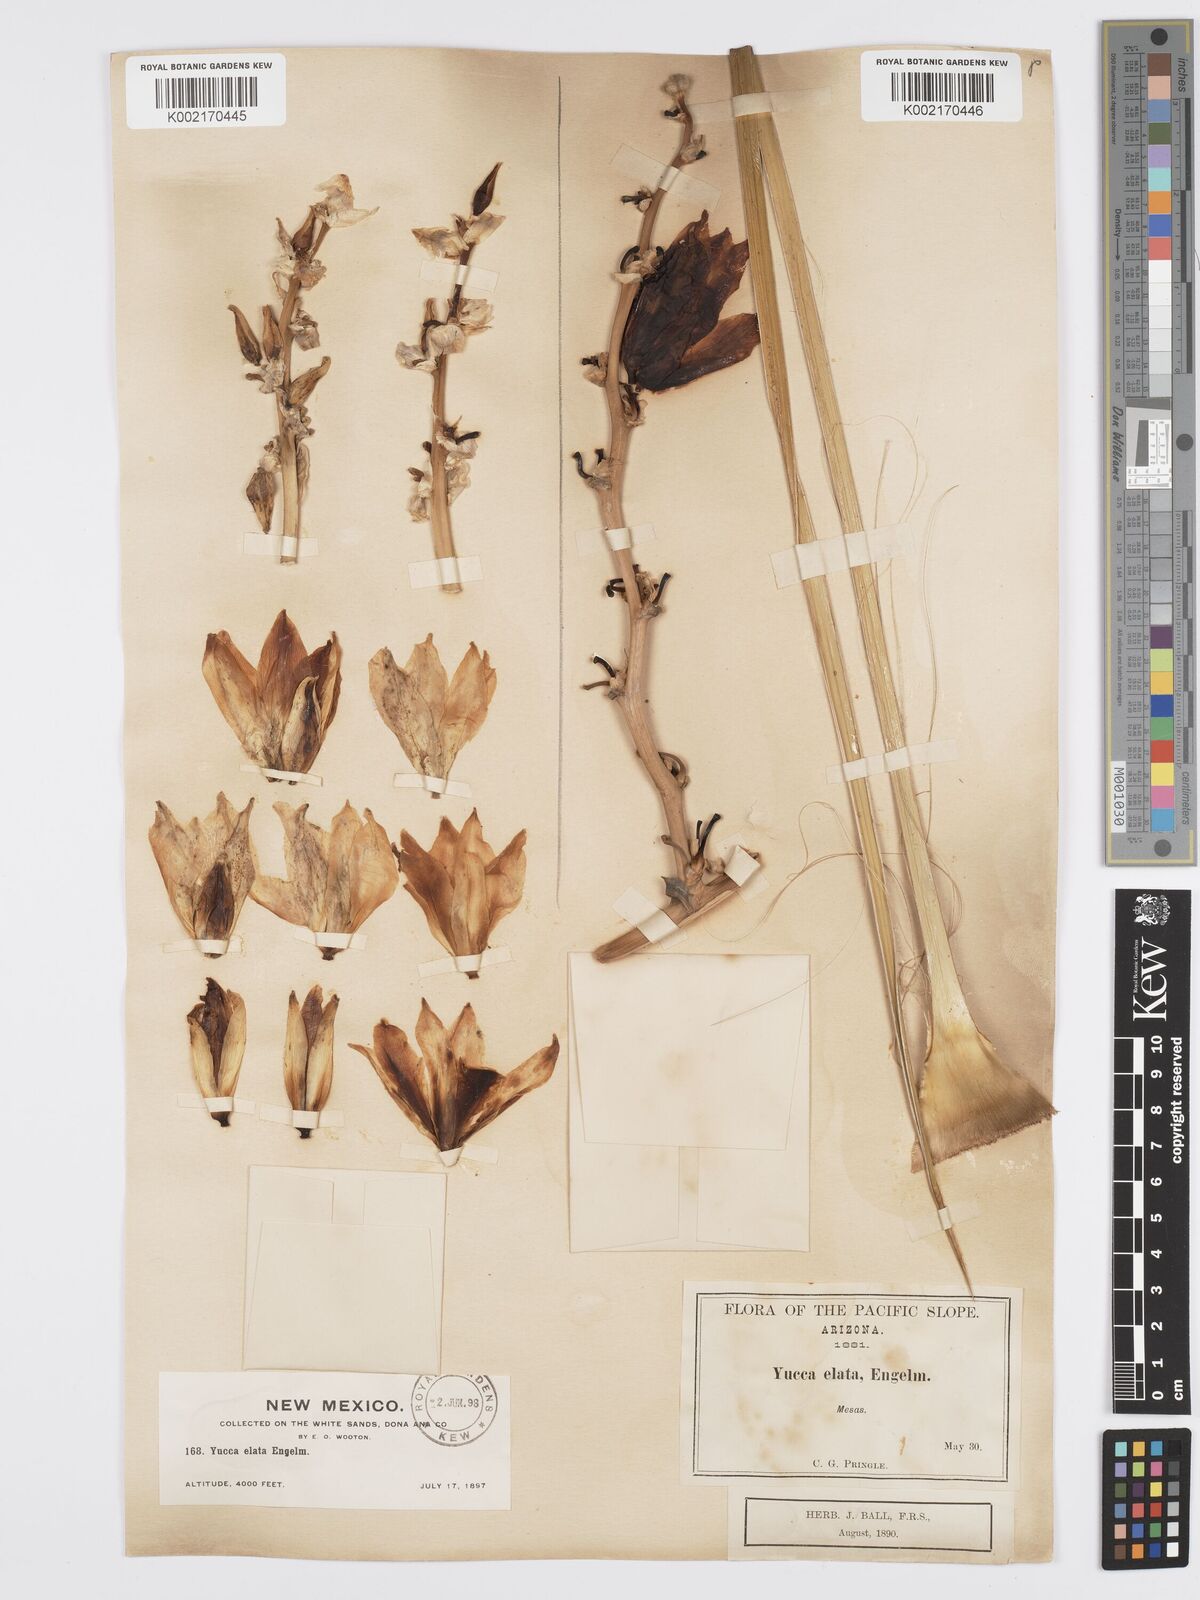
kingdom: Plantae
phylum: Tracheophyta
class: Liliopsida
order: Asparagales
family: Asparagaceae
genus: Yucca
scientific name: Yucca elata
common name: Palmella
